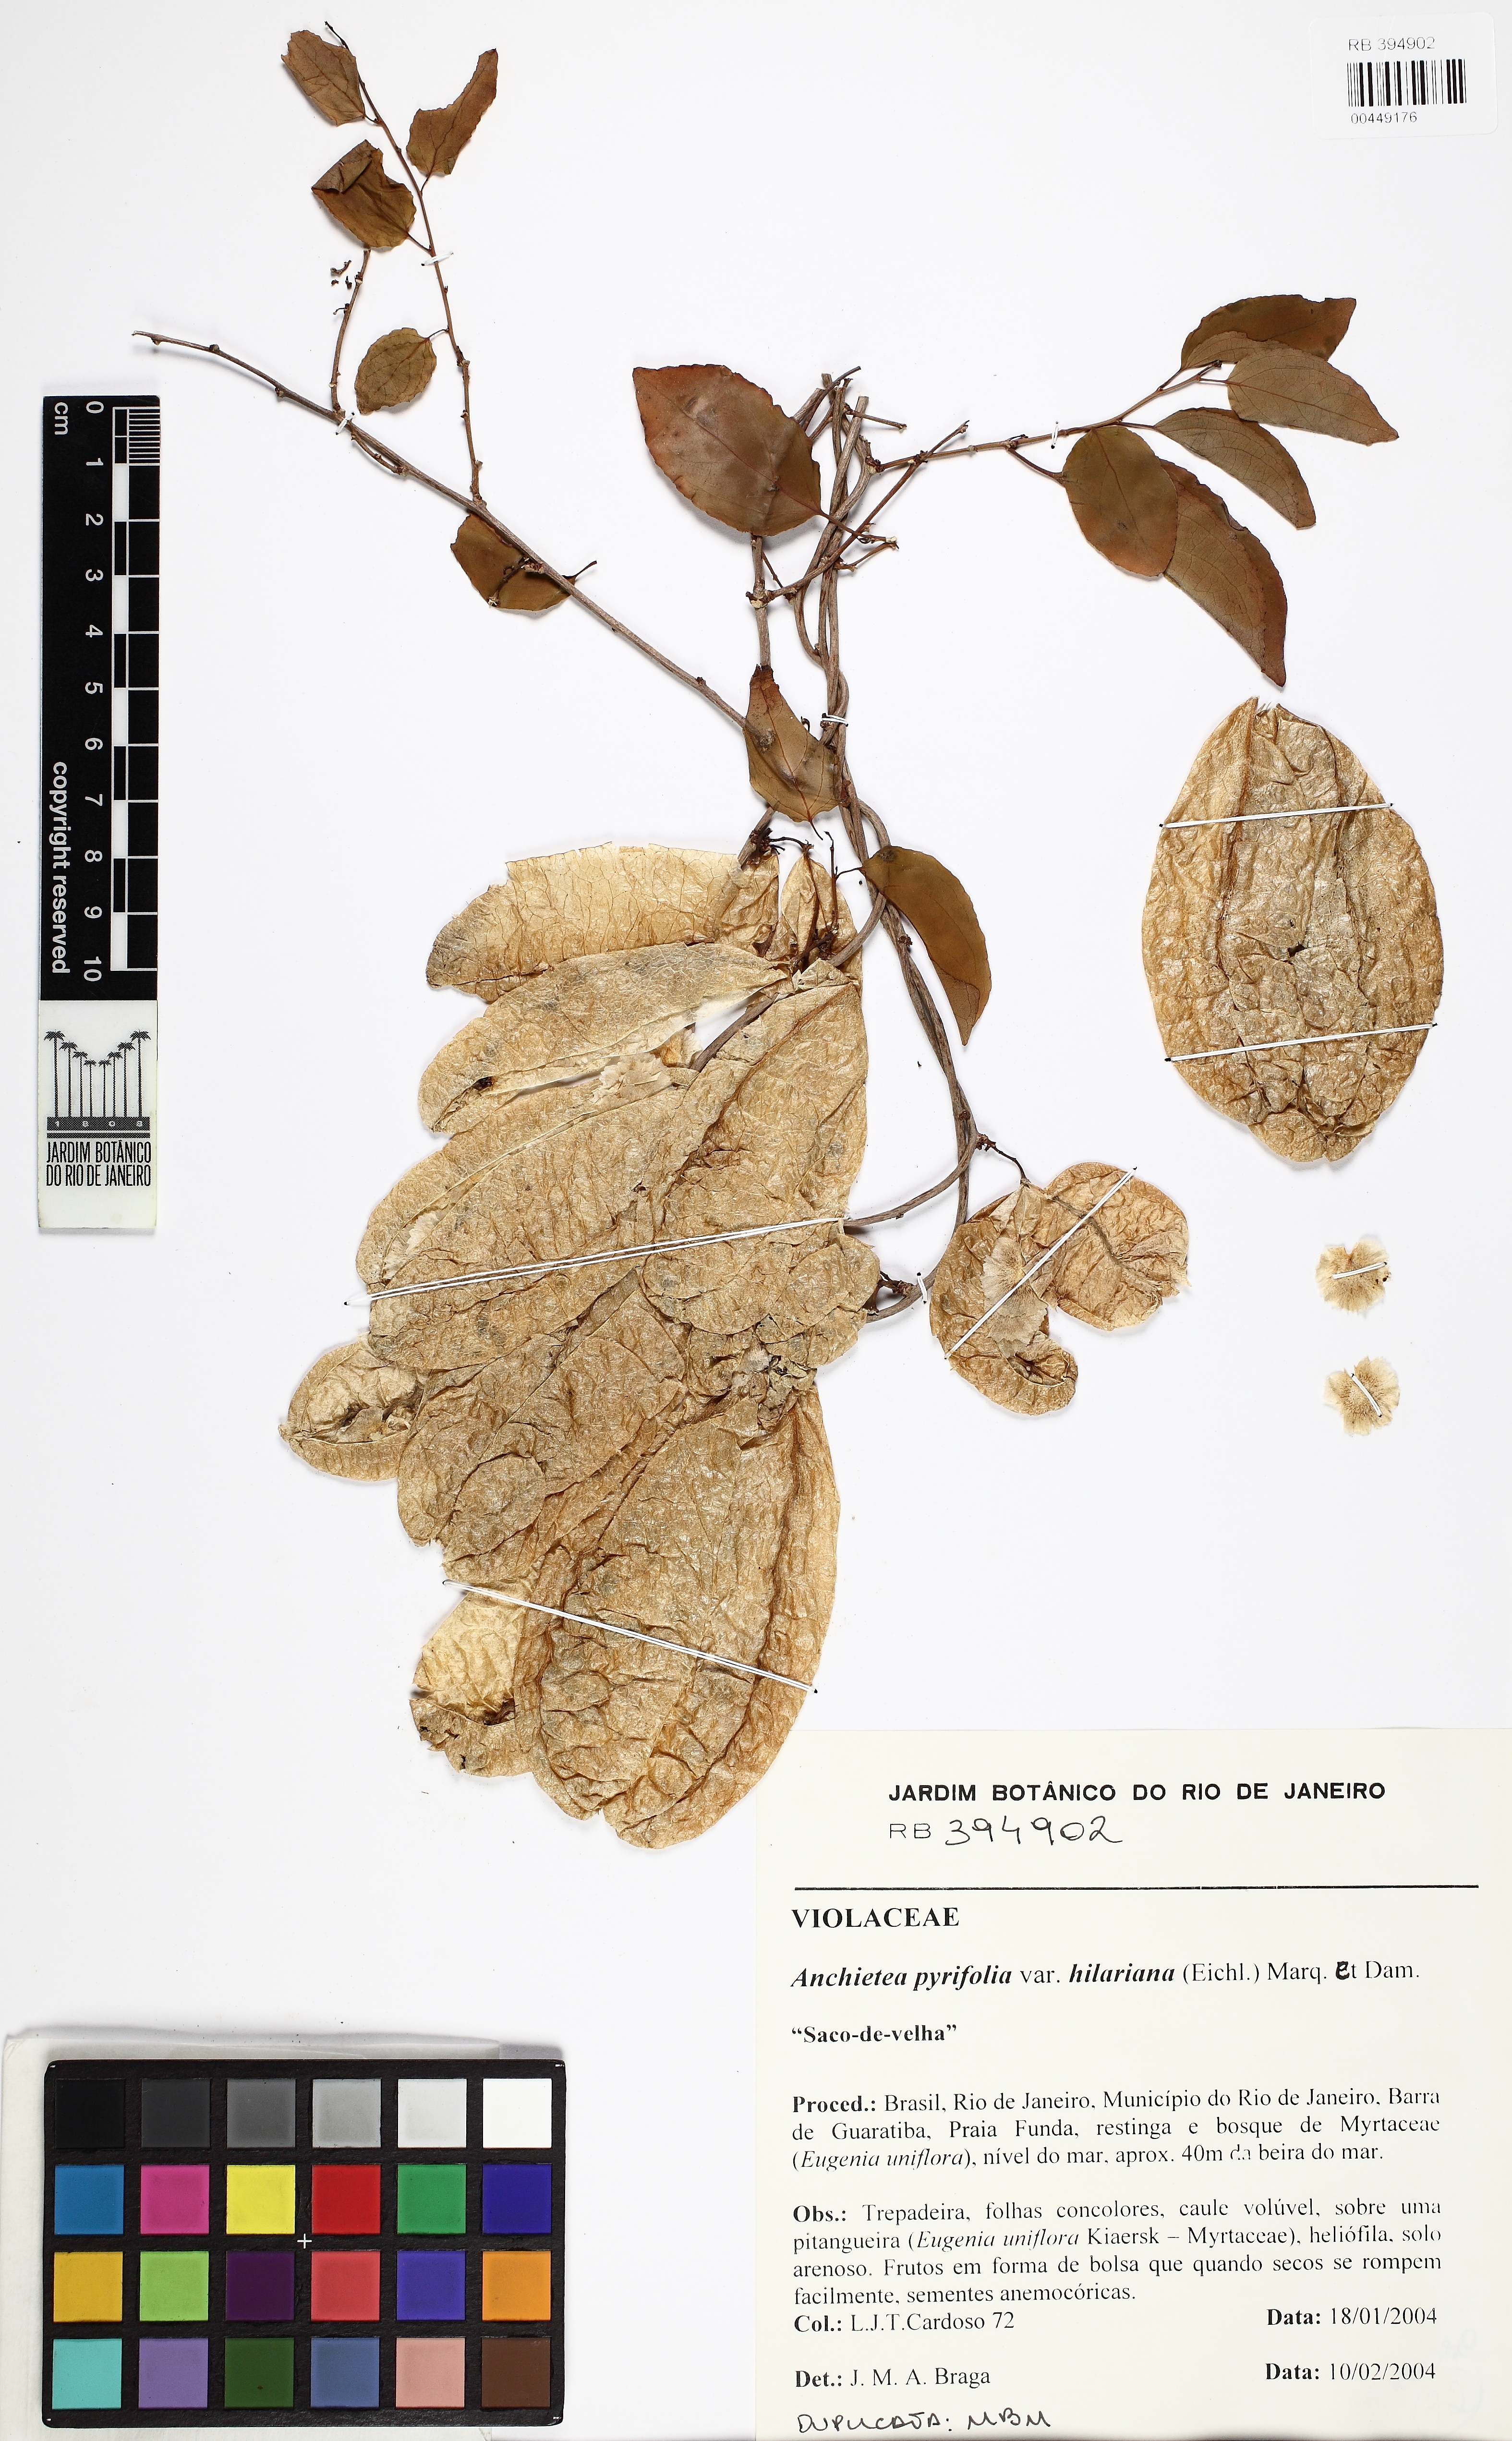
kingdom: Plantae
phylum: Tracheophyta
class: Magnoliopsida
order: Malpighiales
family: Violaceae
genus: Anchietea
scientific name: Anchietea pyrifolia
